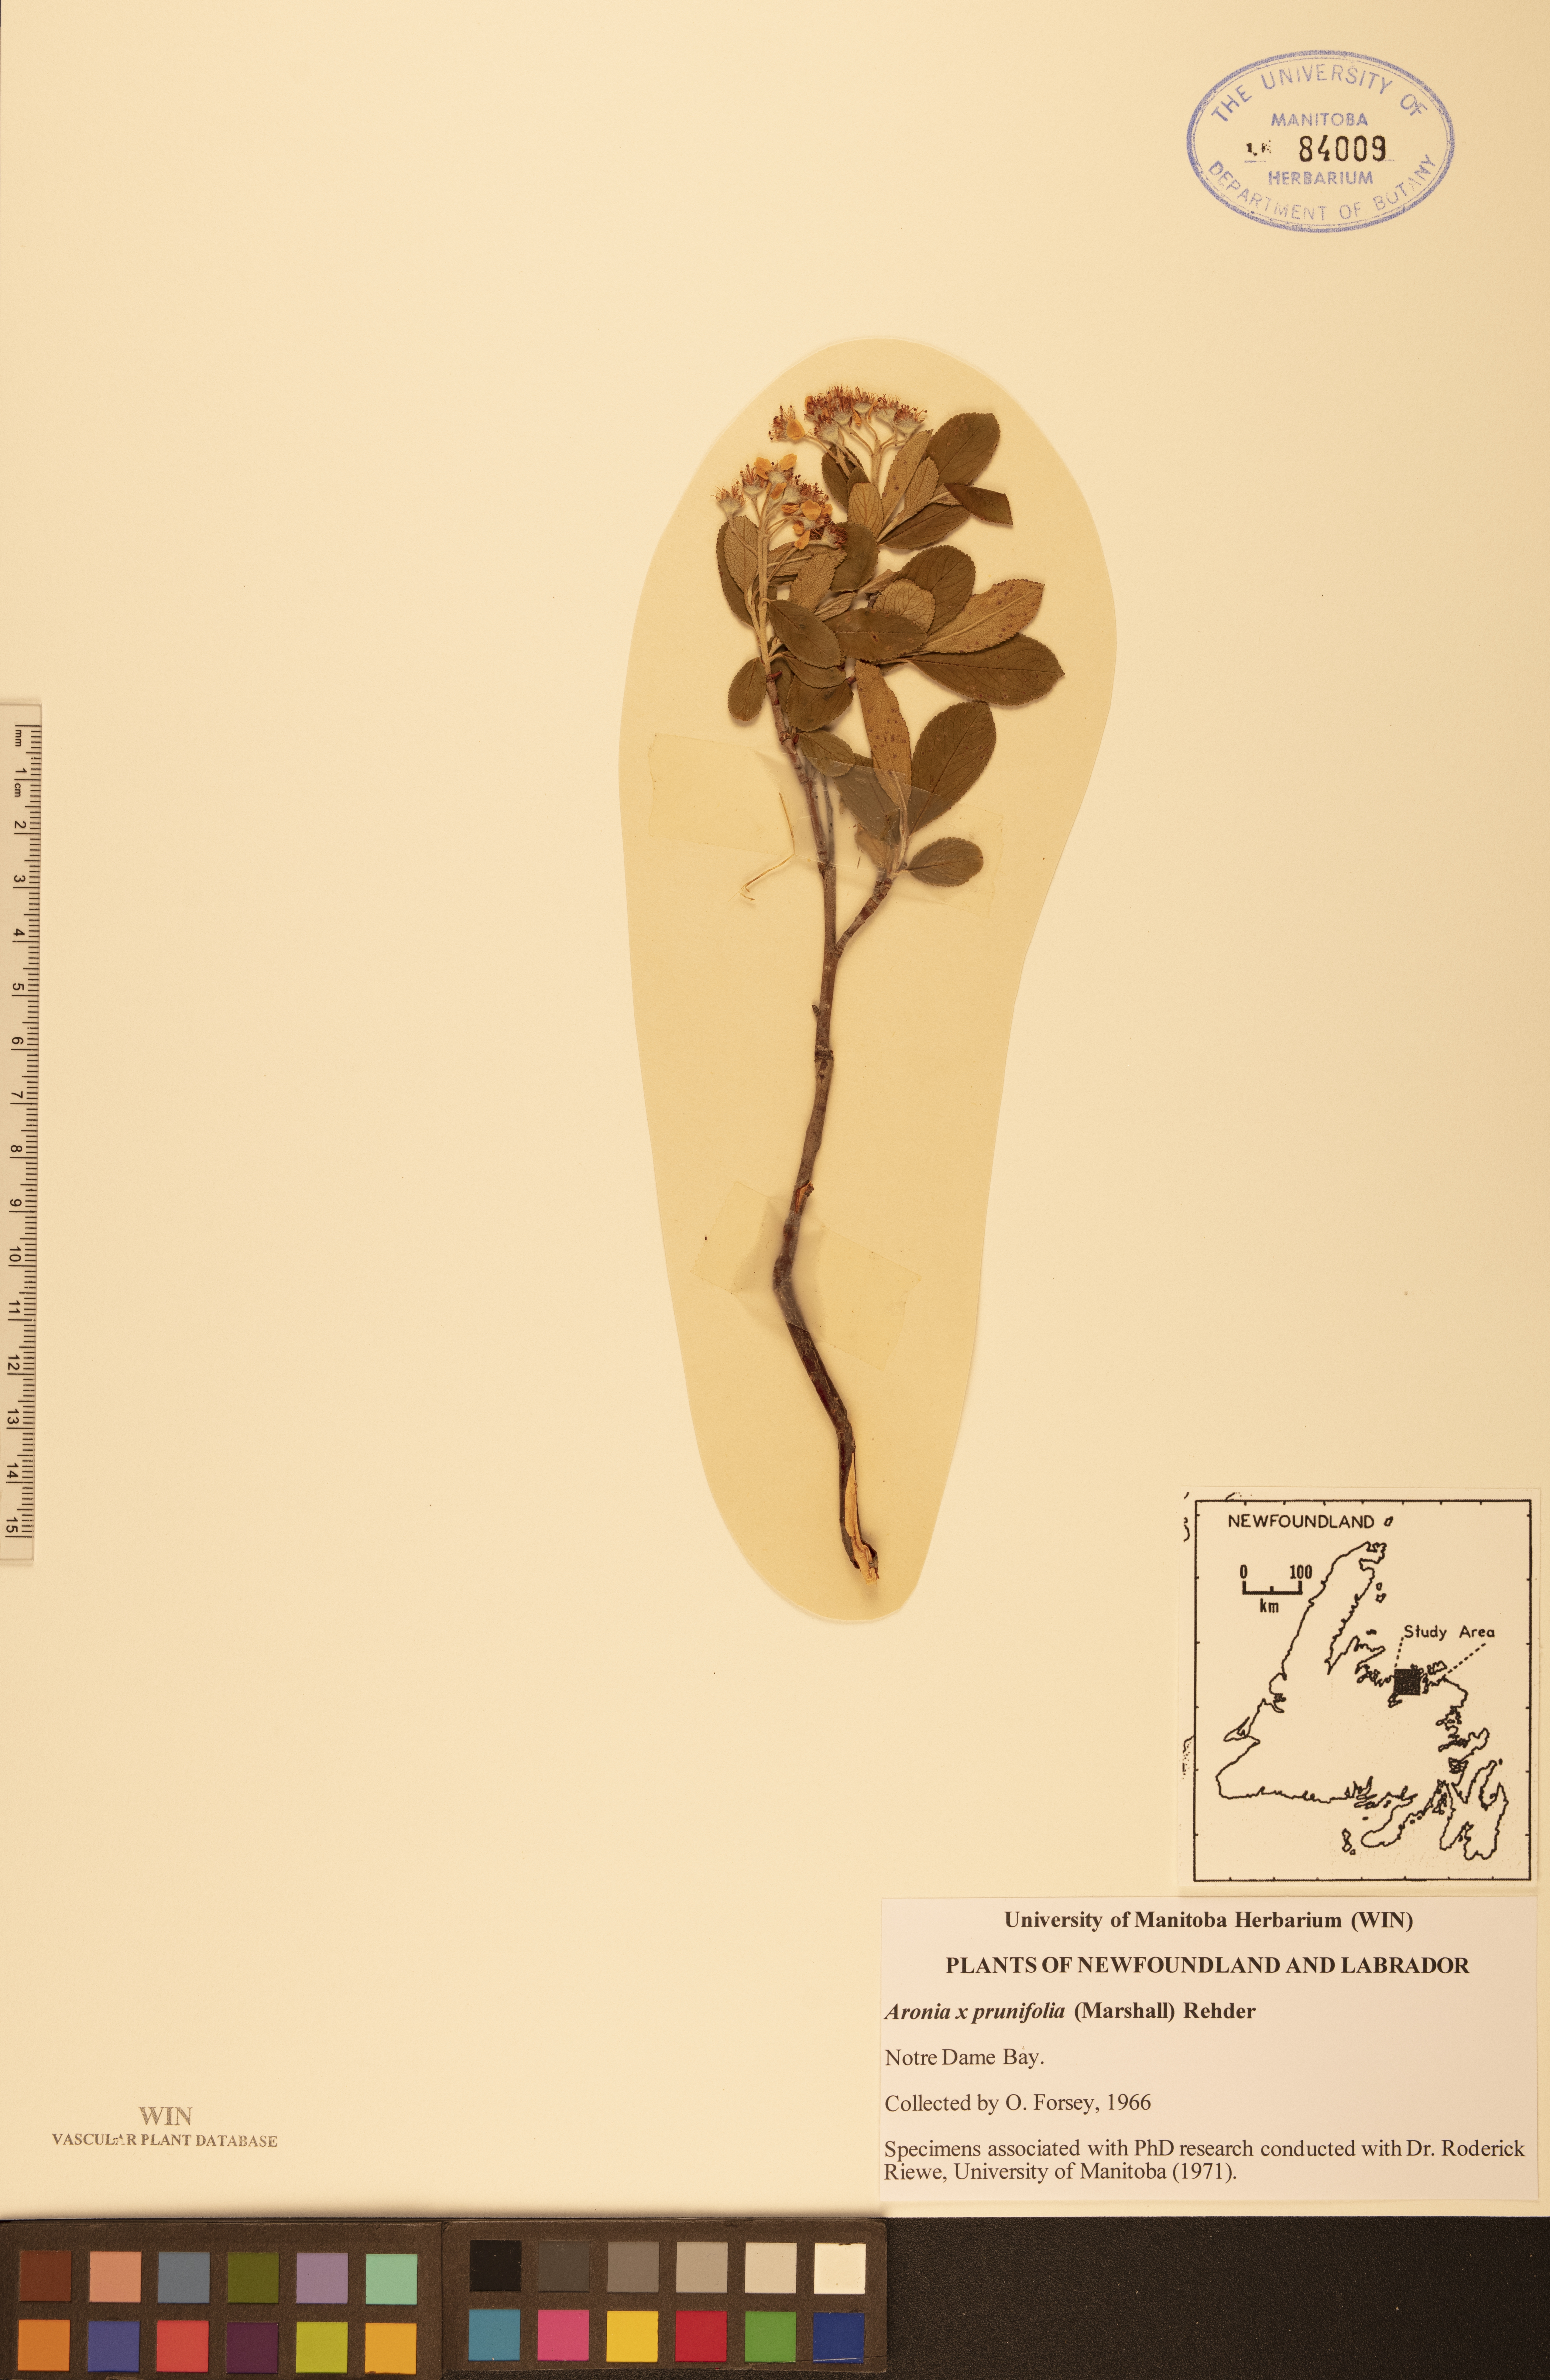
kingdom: Plantae
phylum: Tracheophyta
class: Magnoliopsida
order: Rosales
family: Rosaceae
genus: Aronia
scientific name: Aronia prunifolia
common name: Purple chokeberry
